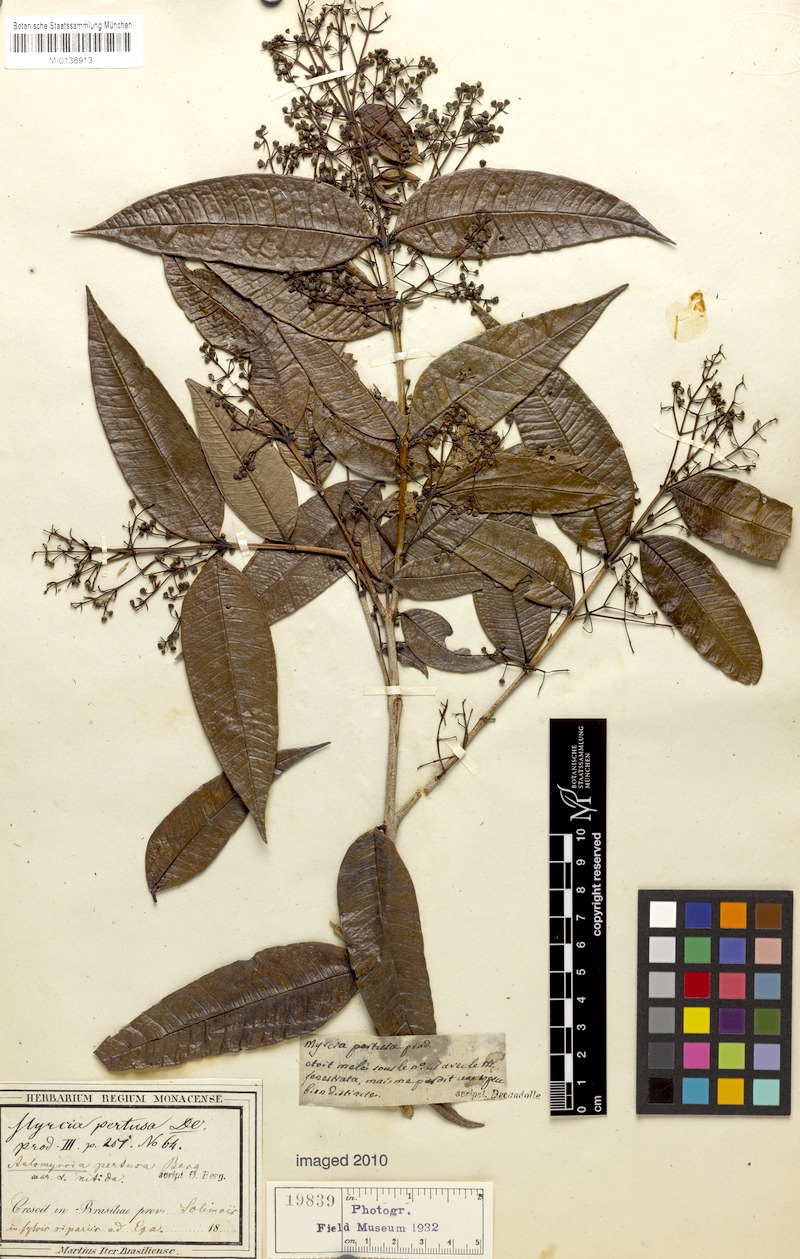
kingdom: Plantae
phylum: Tracheophyta
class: Magnoliopsida
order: Myrtales
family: Myrtaceae
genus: Myrcia
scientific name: Myrcia pertusa
